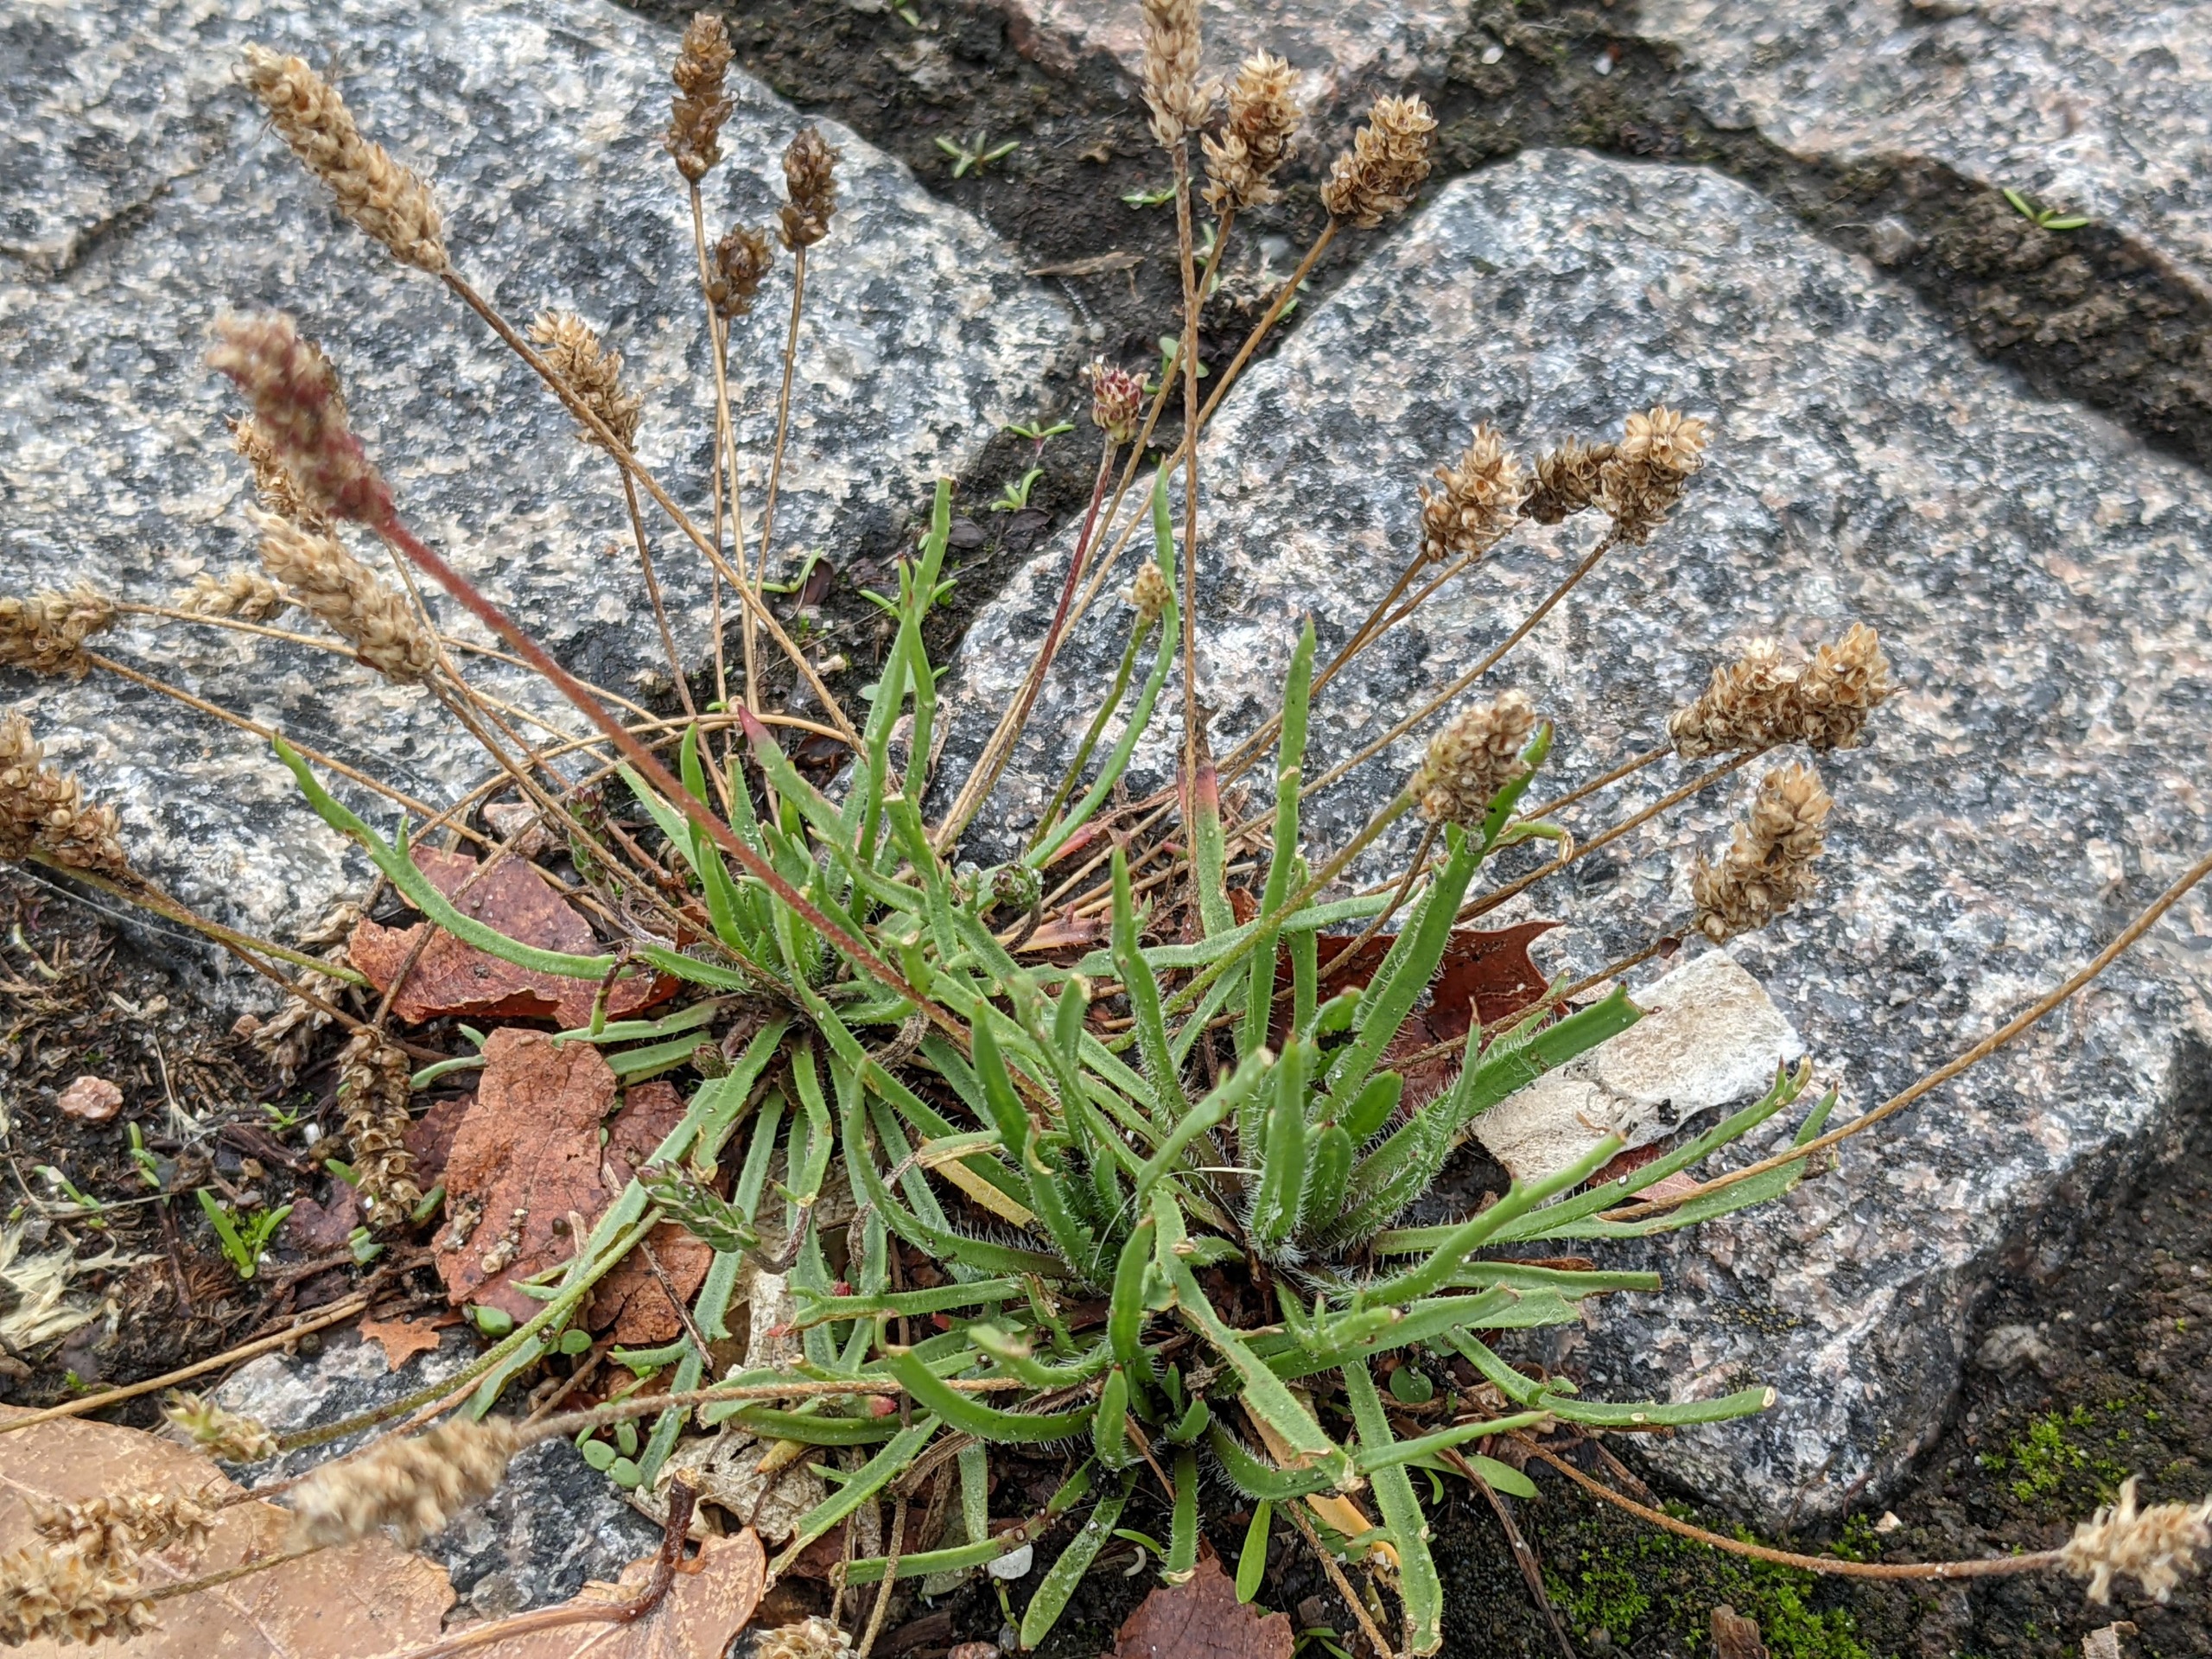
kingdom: Plantae
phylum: Tracheophyta
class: Magnoliopsida
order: Lamiales
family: Plantaginaceae
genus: Plantago
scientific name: Plantago coronopus
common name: Fliget vejbred
